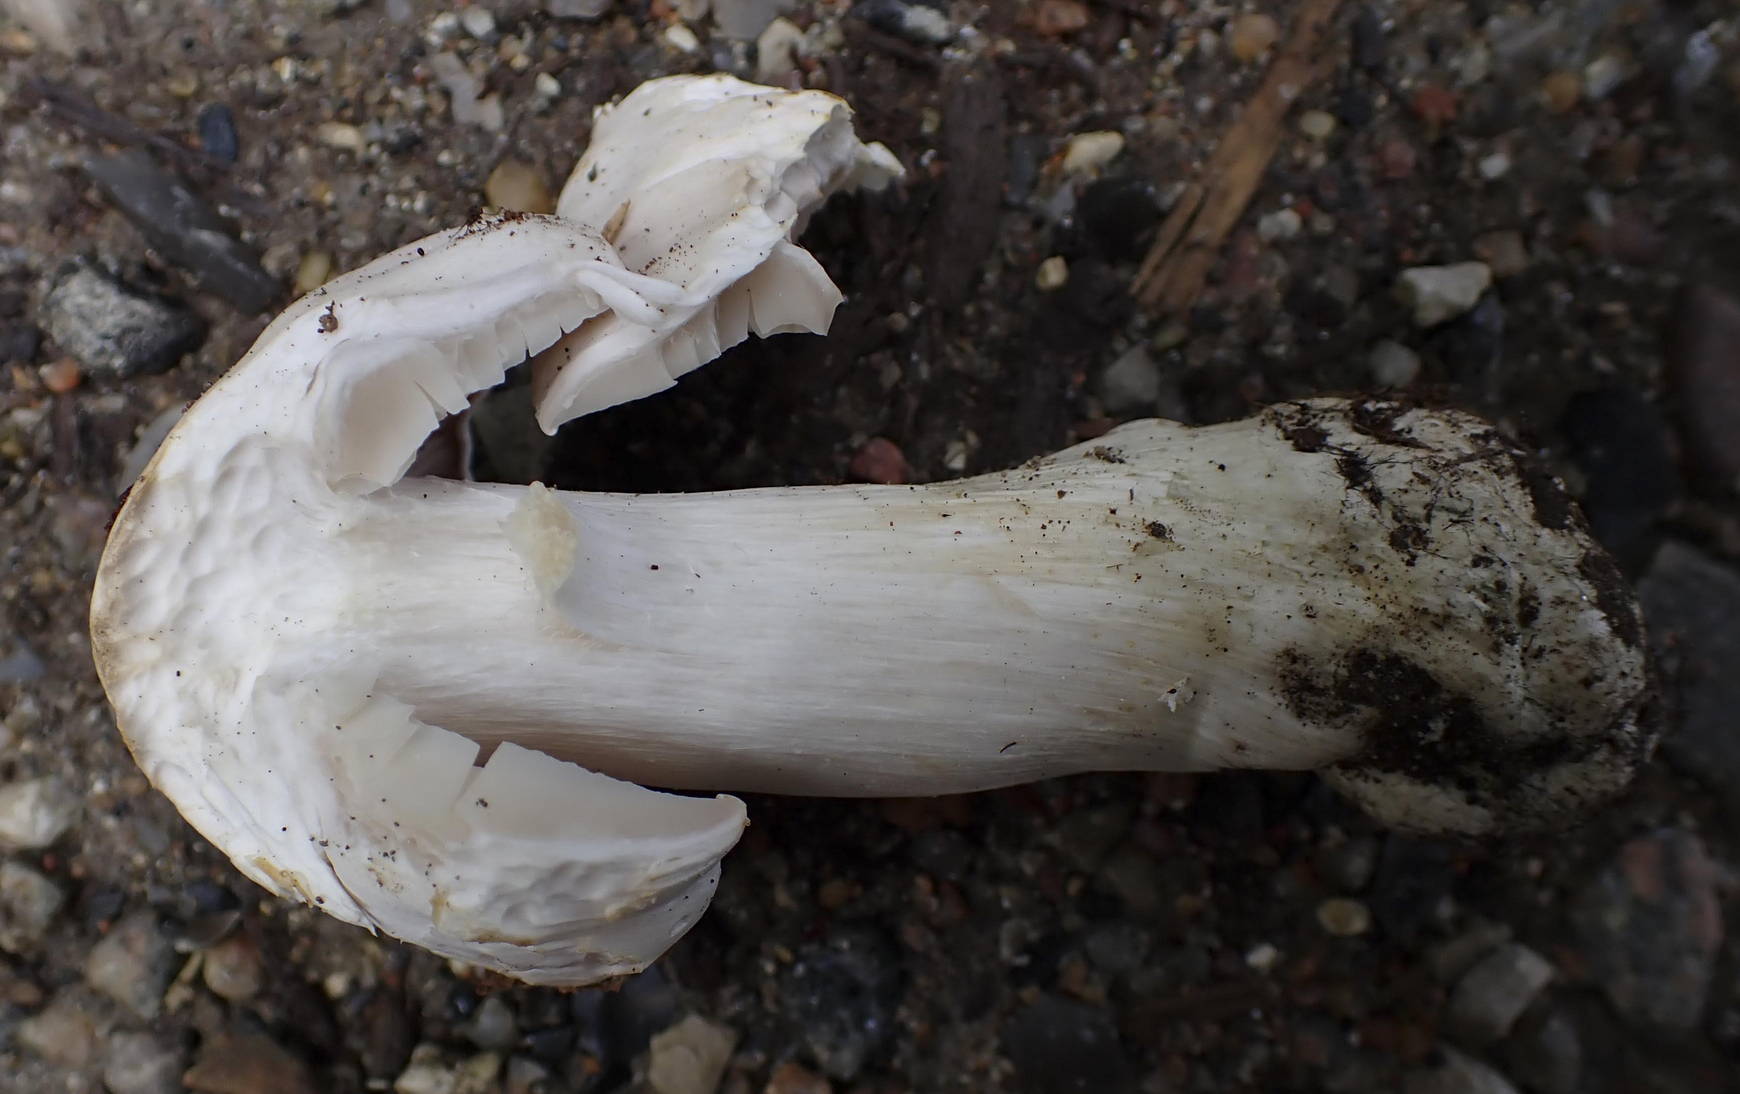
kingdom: Fungi
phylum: Basidiomycota
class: Agaricomycetes
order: Agaricales
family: Tricholomataceae
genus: Tricholoma
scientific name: Tricholoma columbetta
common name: silke-ridderhat
